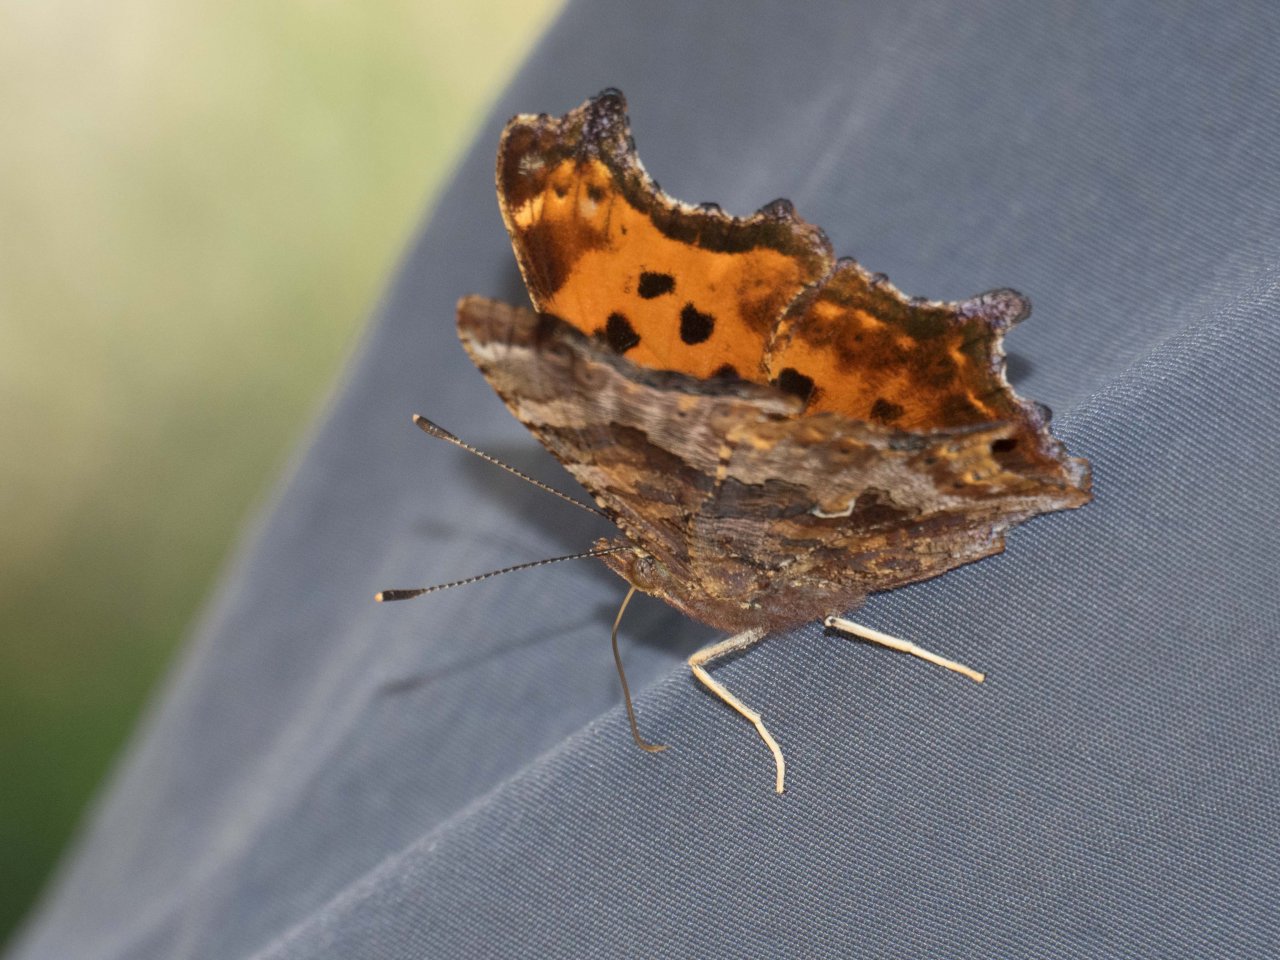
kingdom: Animalia
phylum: Arthropoda
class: Insecta
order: Lepidoptera
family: Nymphalidae
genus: Polygonia
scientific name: Polygonia comma
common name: Eastern Comma
